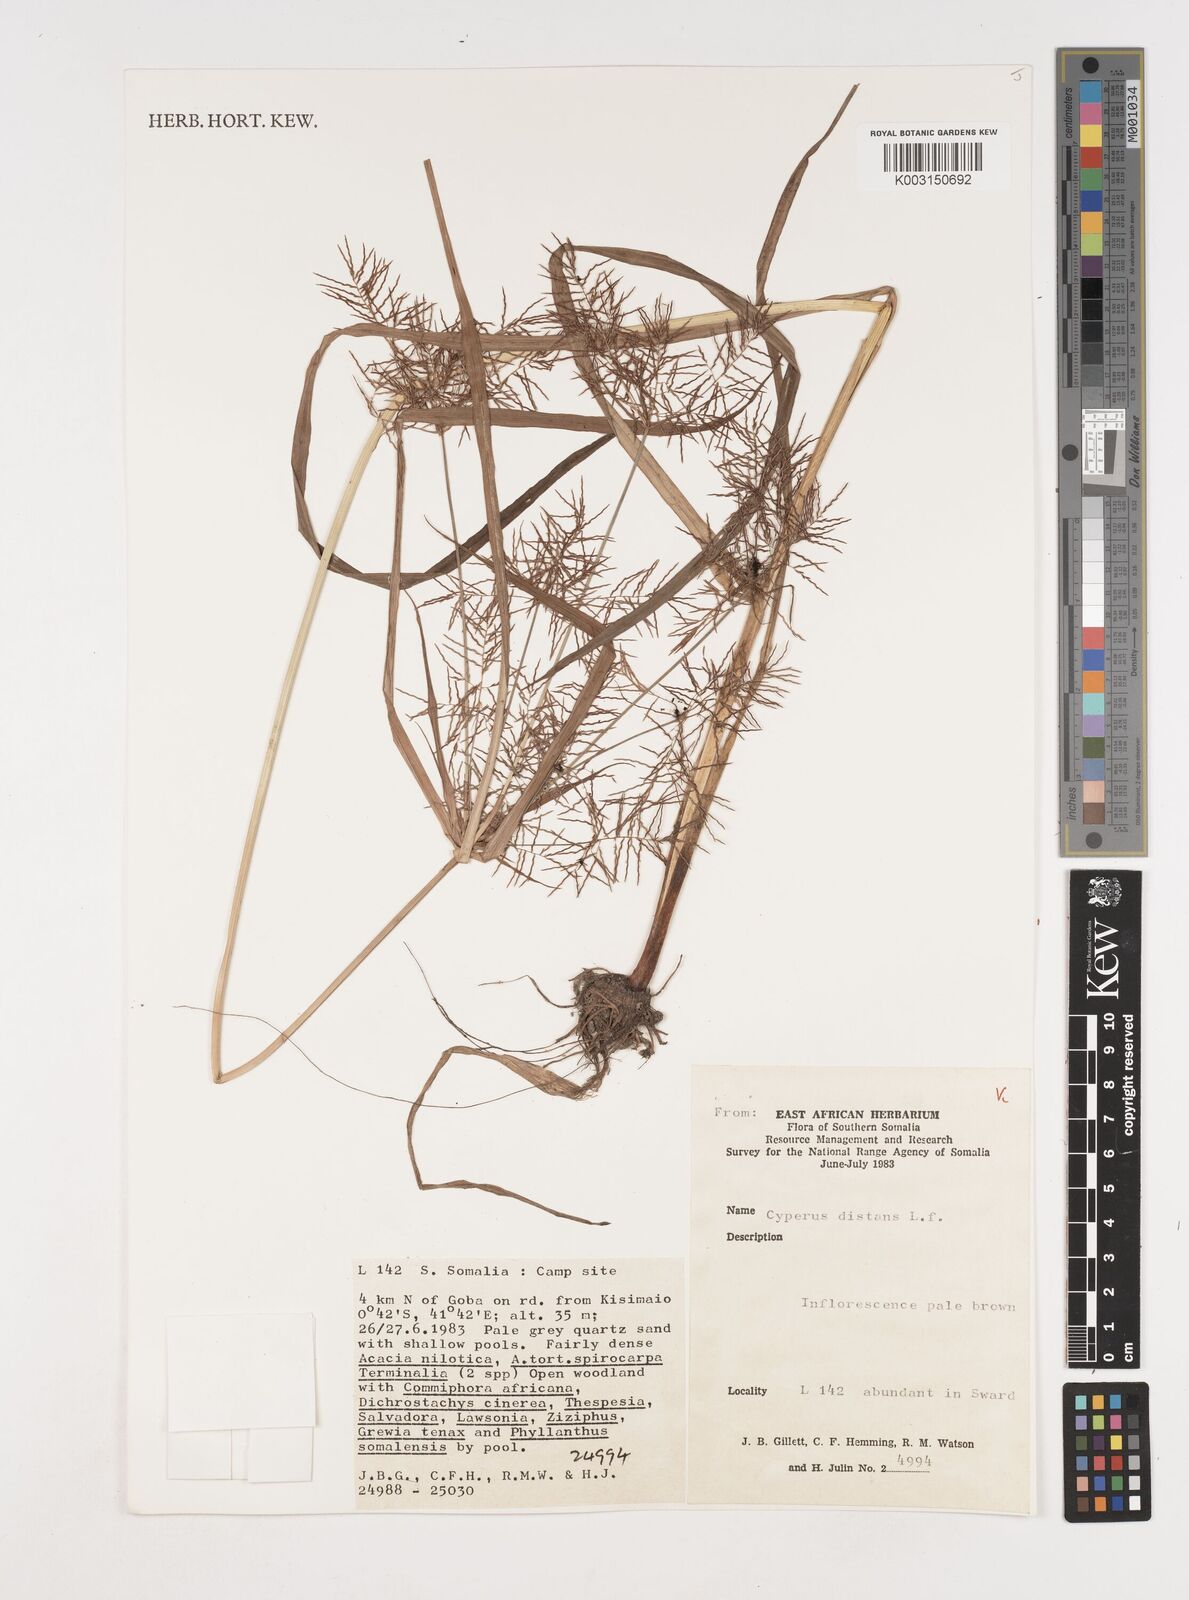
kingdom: Plantae
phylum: Tracheophyta
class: Liliopsida
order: Poales
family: Cyperaceae
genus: Cyperus
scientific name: Cyperus distans
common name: Slender cyperus
